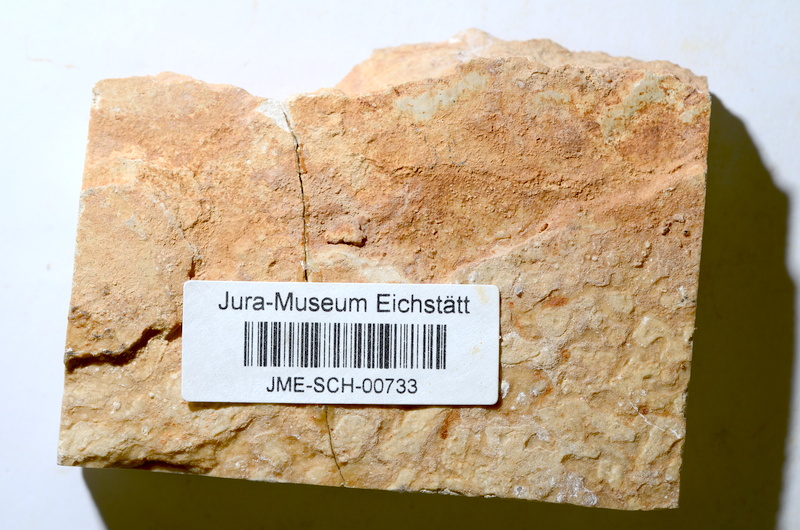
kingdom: Animalia
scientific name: Animalia
